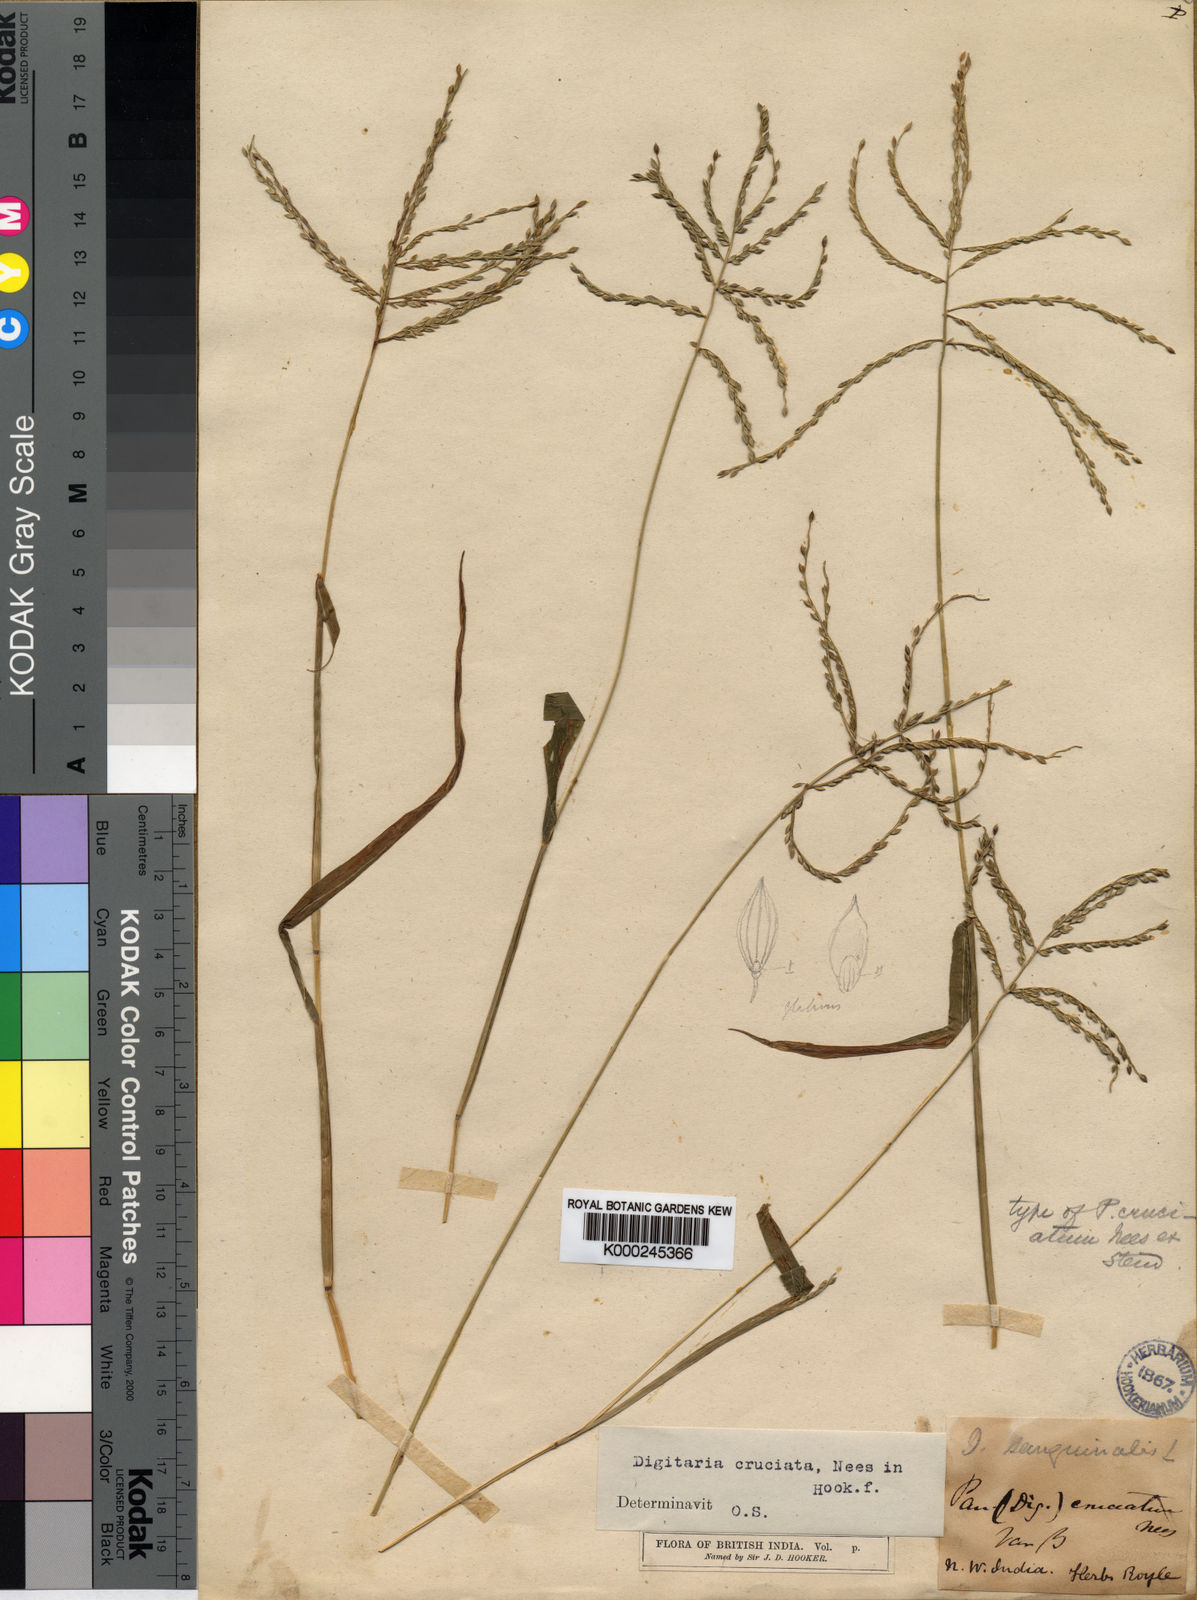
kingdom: Plantae
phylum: Tracheophyta
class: Liliopsida
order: Poales
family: Poaceae
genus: Digitaria
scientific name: Digitaria sanguinalis
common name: Hairy crabgrass
